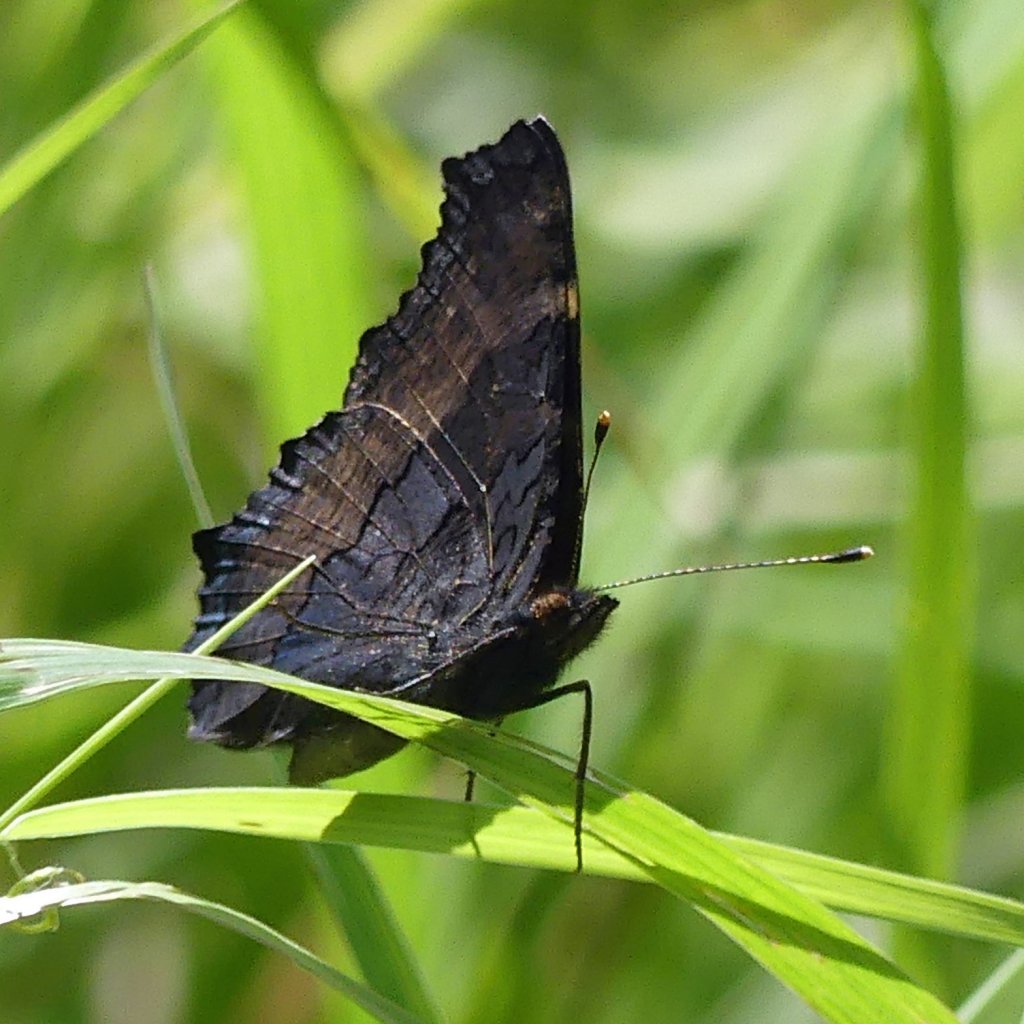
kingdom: Animalia
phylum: Arthropoda
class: Insecta
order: Lepidoptera
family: Nymphalidae
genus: Aglais
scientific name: Aglais milberti
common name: Milbert's Tortoiseshell
